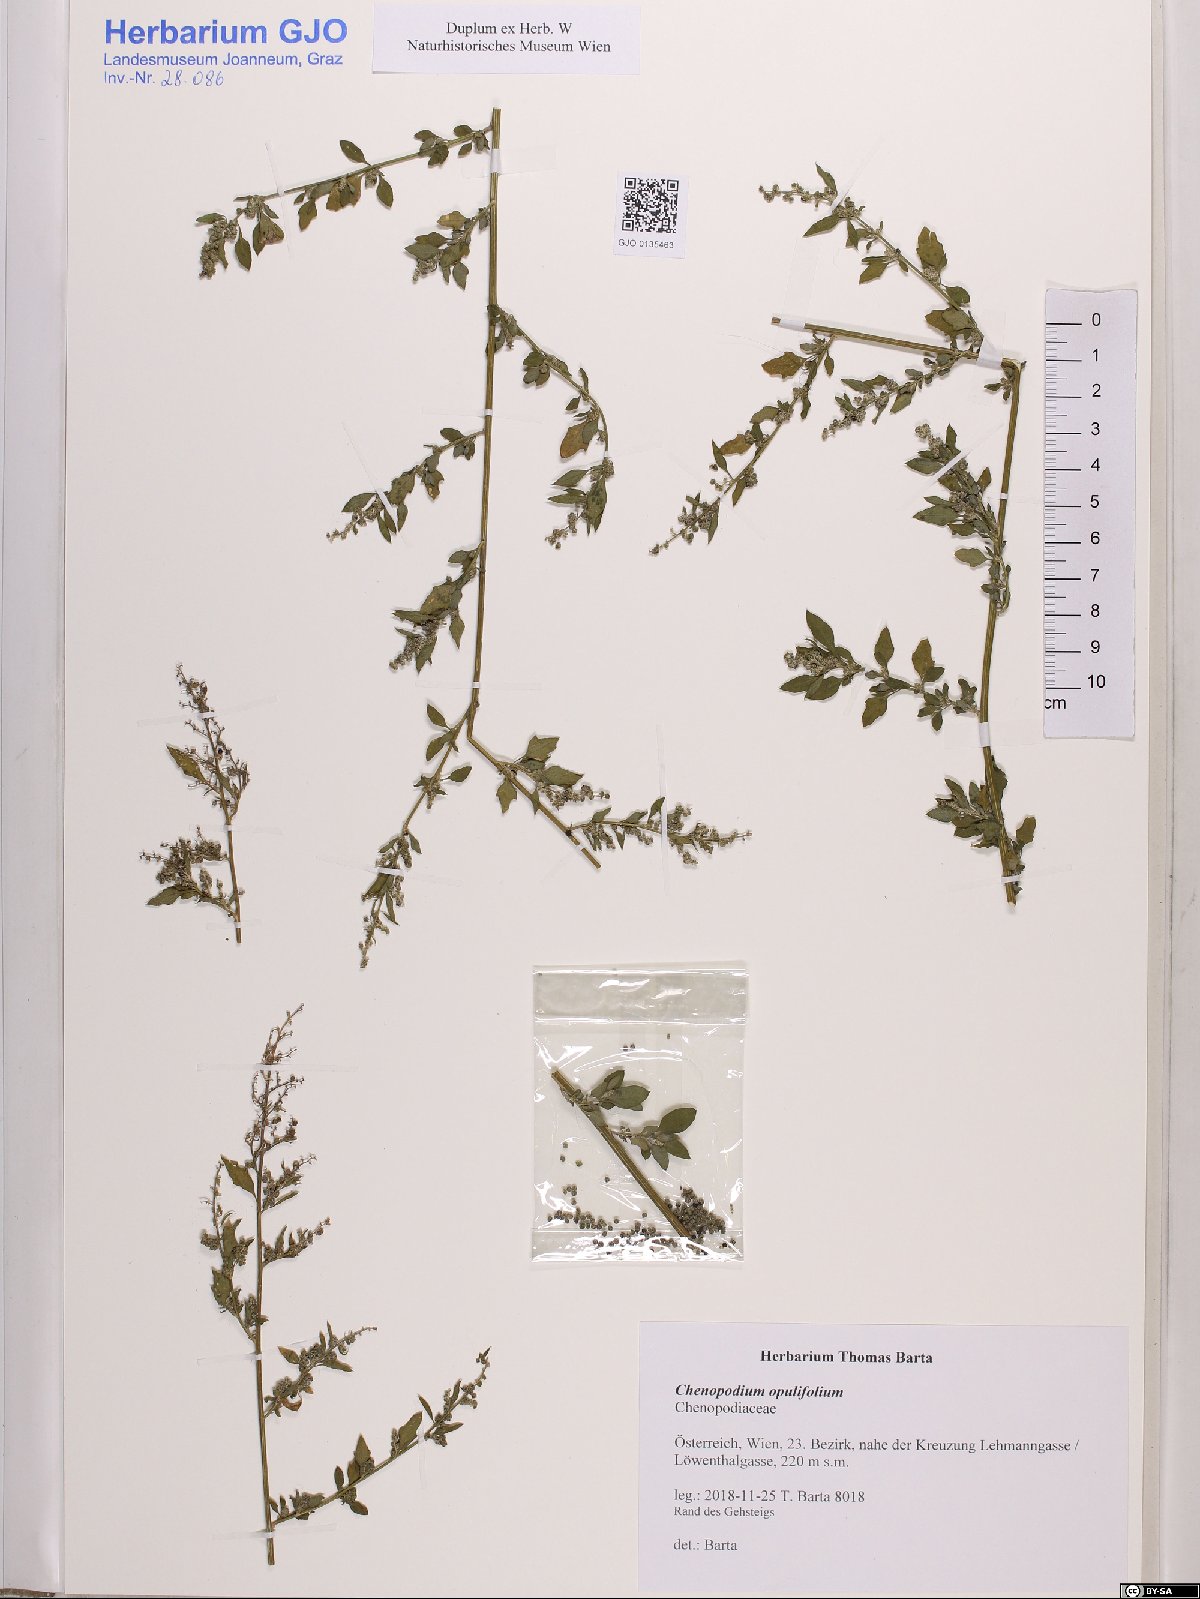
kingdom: Plantae
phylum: Tracheophyta
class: Magnoliopsida
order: Caryophyllales
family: Amaranthaceae
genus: Chenopodium
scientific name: Chenopodium opulifolium
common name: Grey goosefoot
